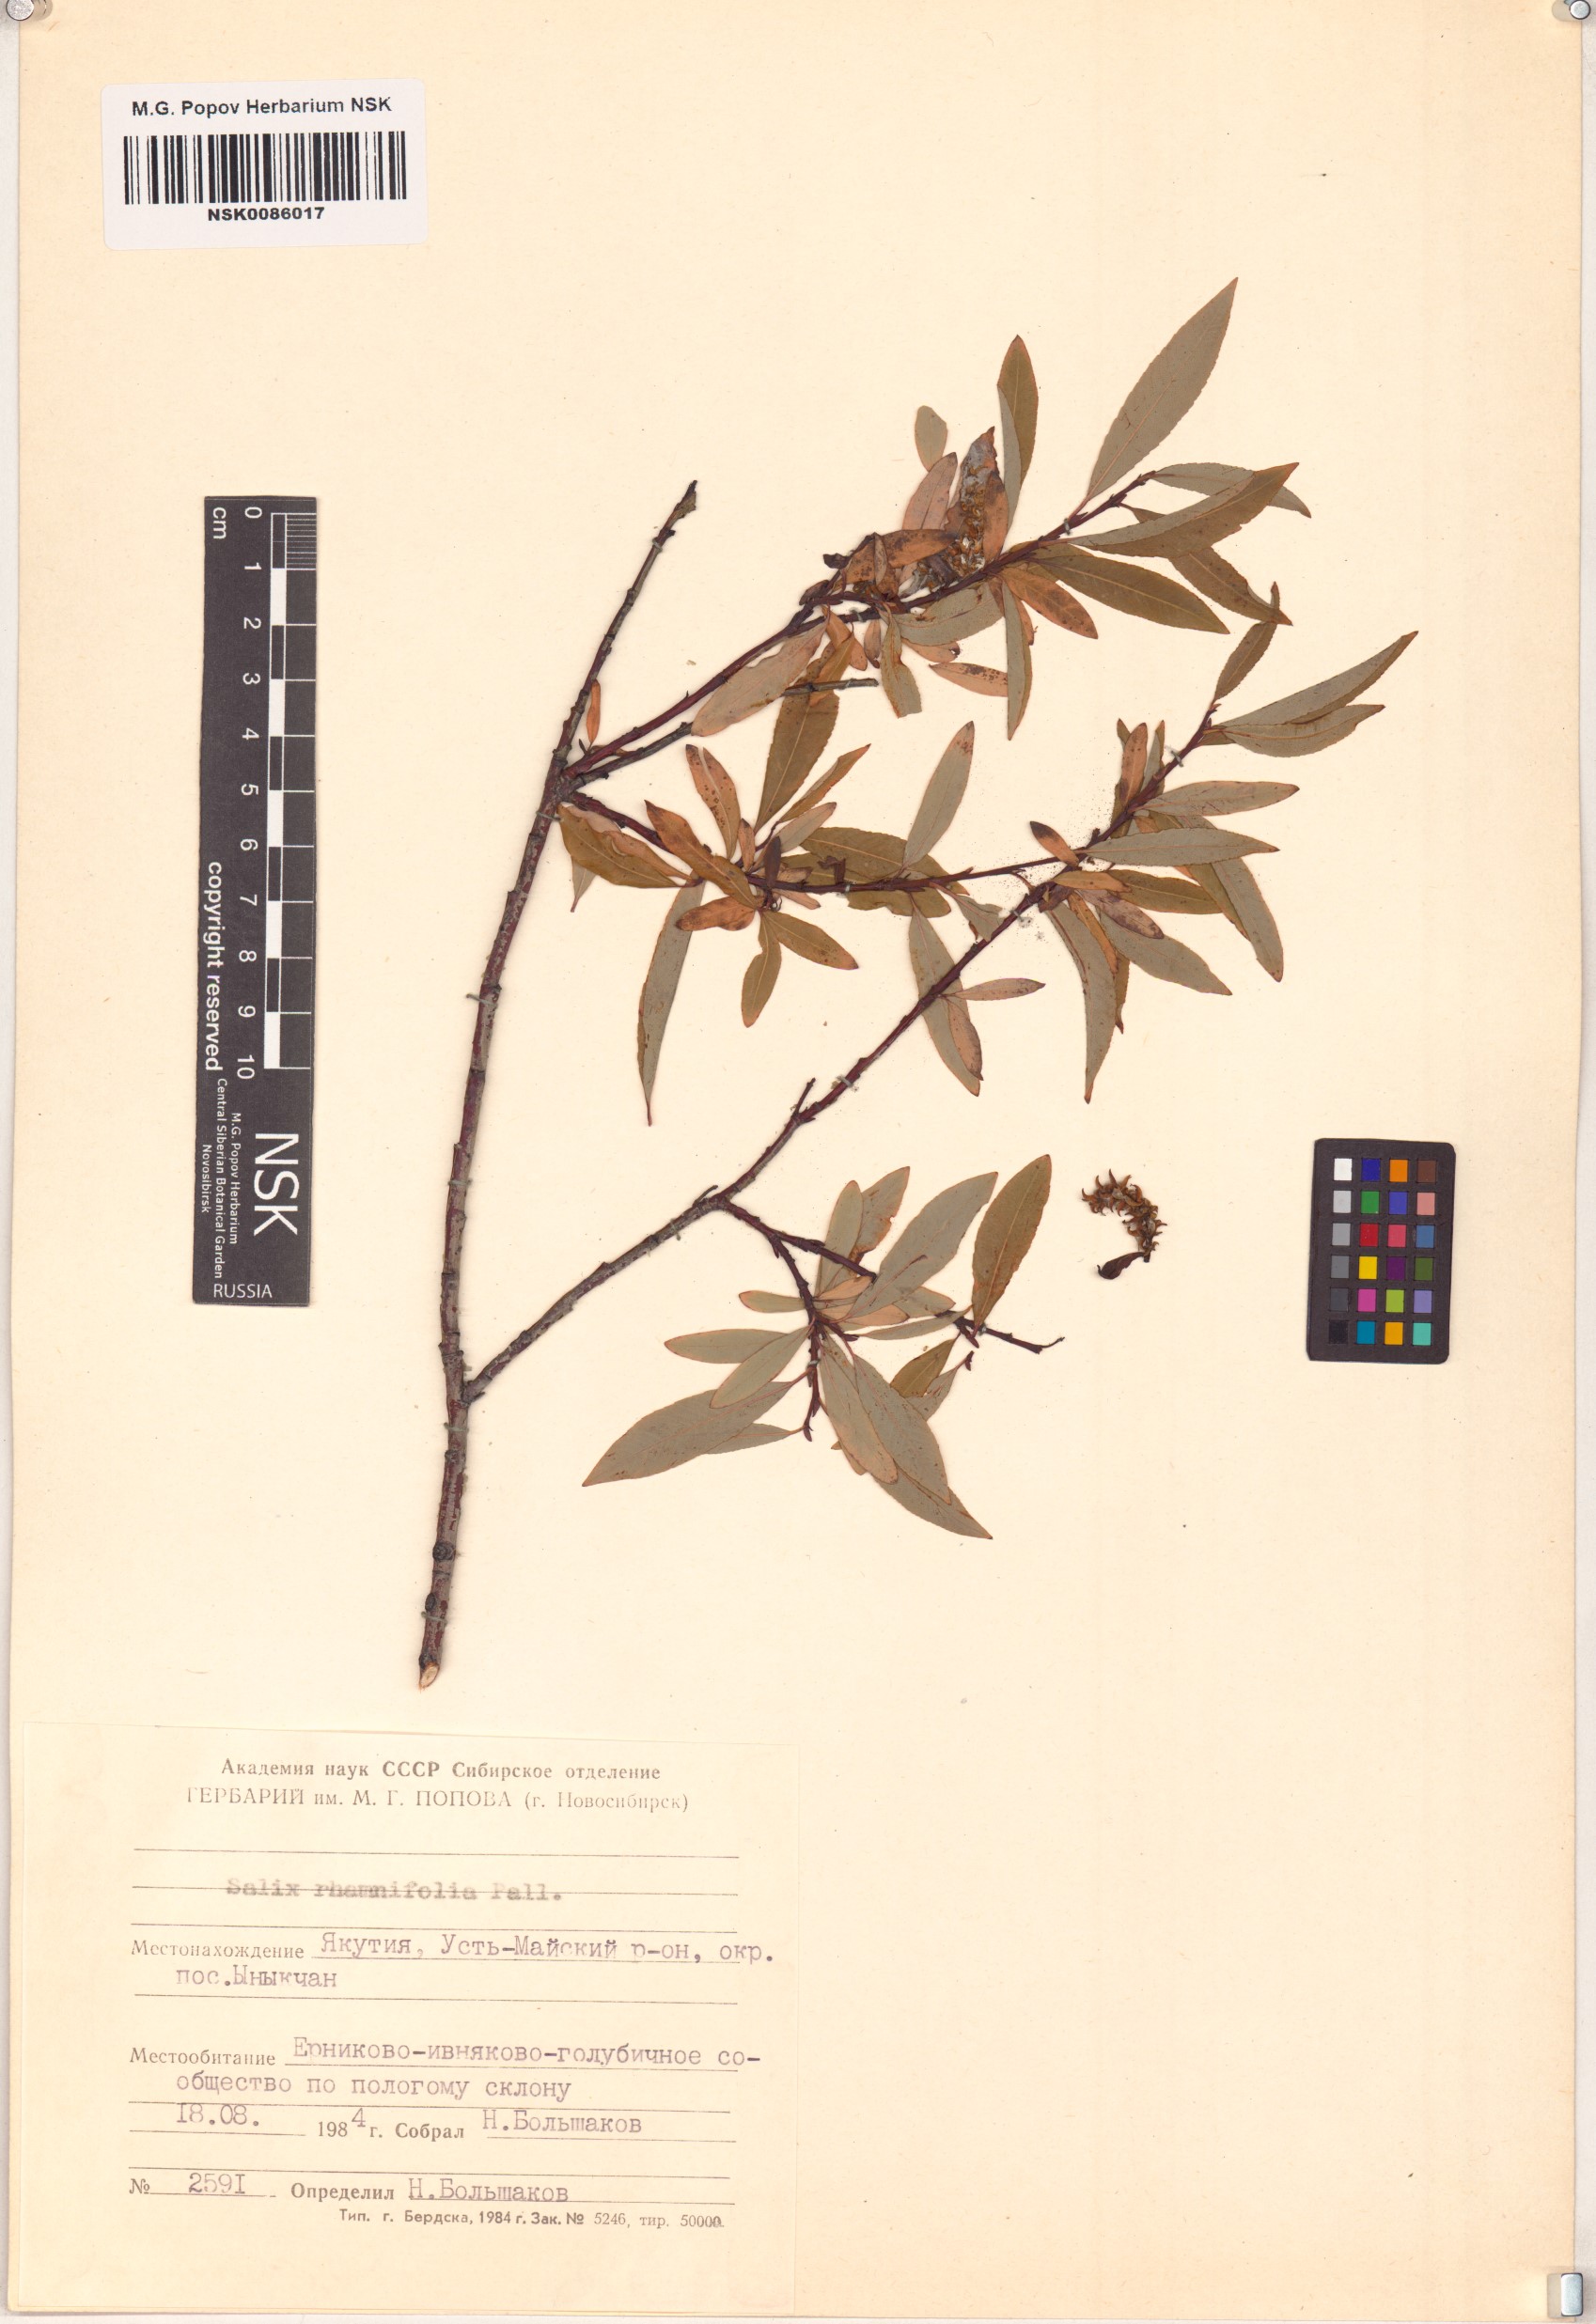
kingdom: Plantae
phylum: Tracheophyta
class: Magnoliopsida
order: Malpighiales
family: Salicaceae
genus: Salix
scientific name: Salix rhamnifolia
